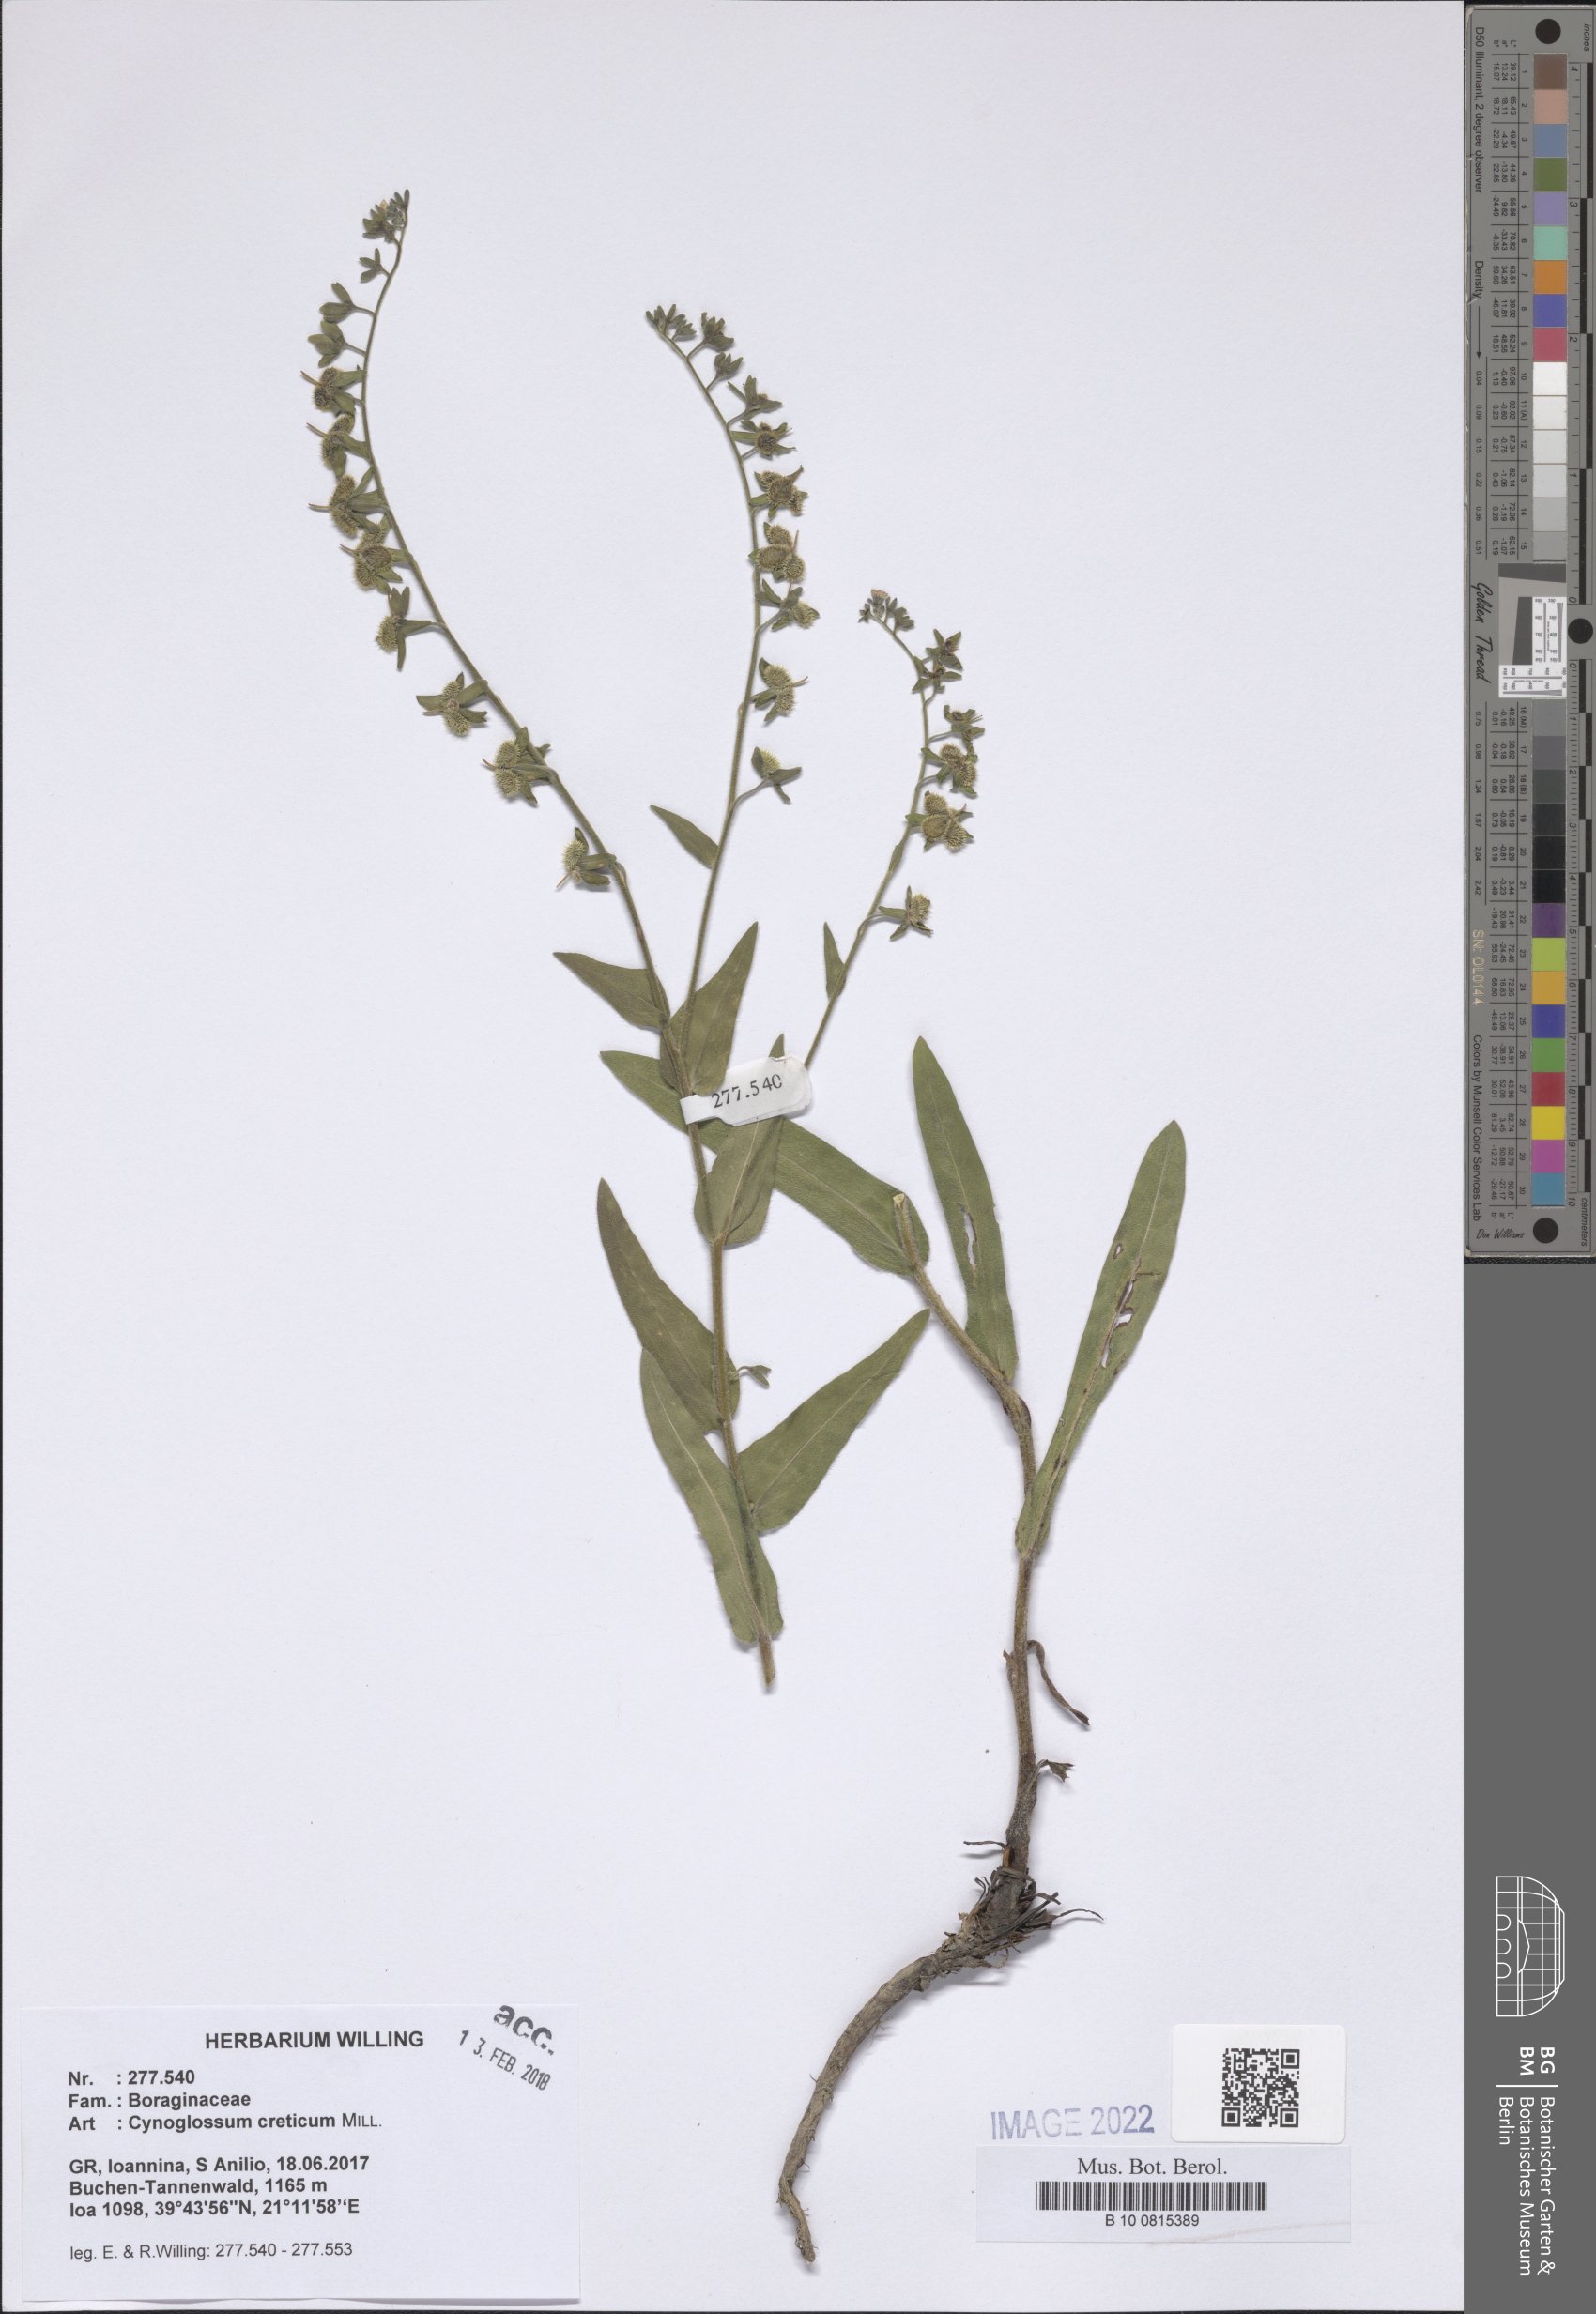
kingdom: Plantae
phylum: Tracheophyta
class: Magnoliopsida
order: Boraginales
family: Boraginaceae
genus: Cynoglossum
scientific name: Cynoglossum creticum
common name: Blue hound's tongue
